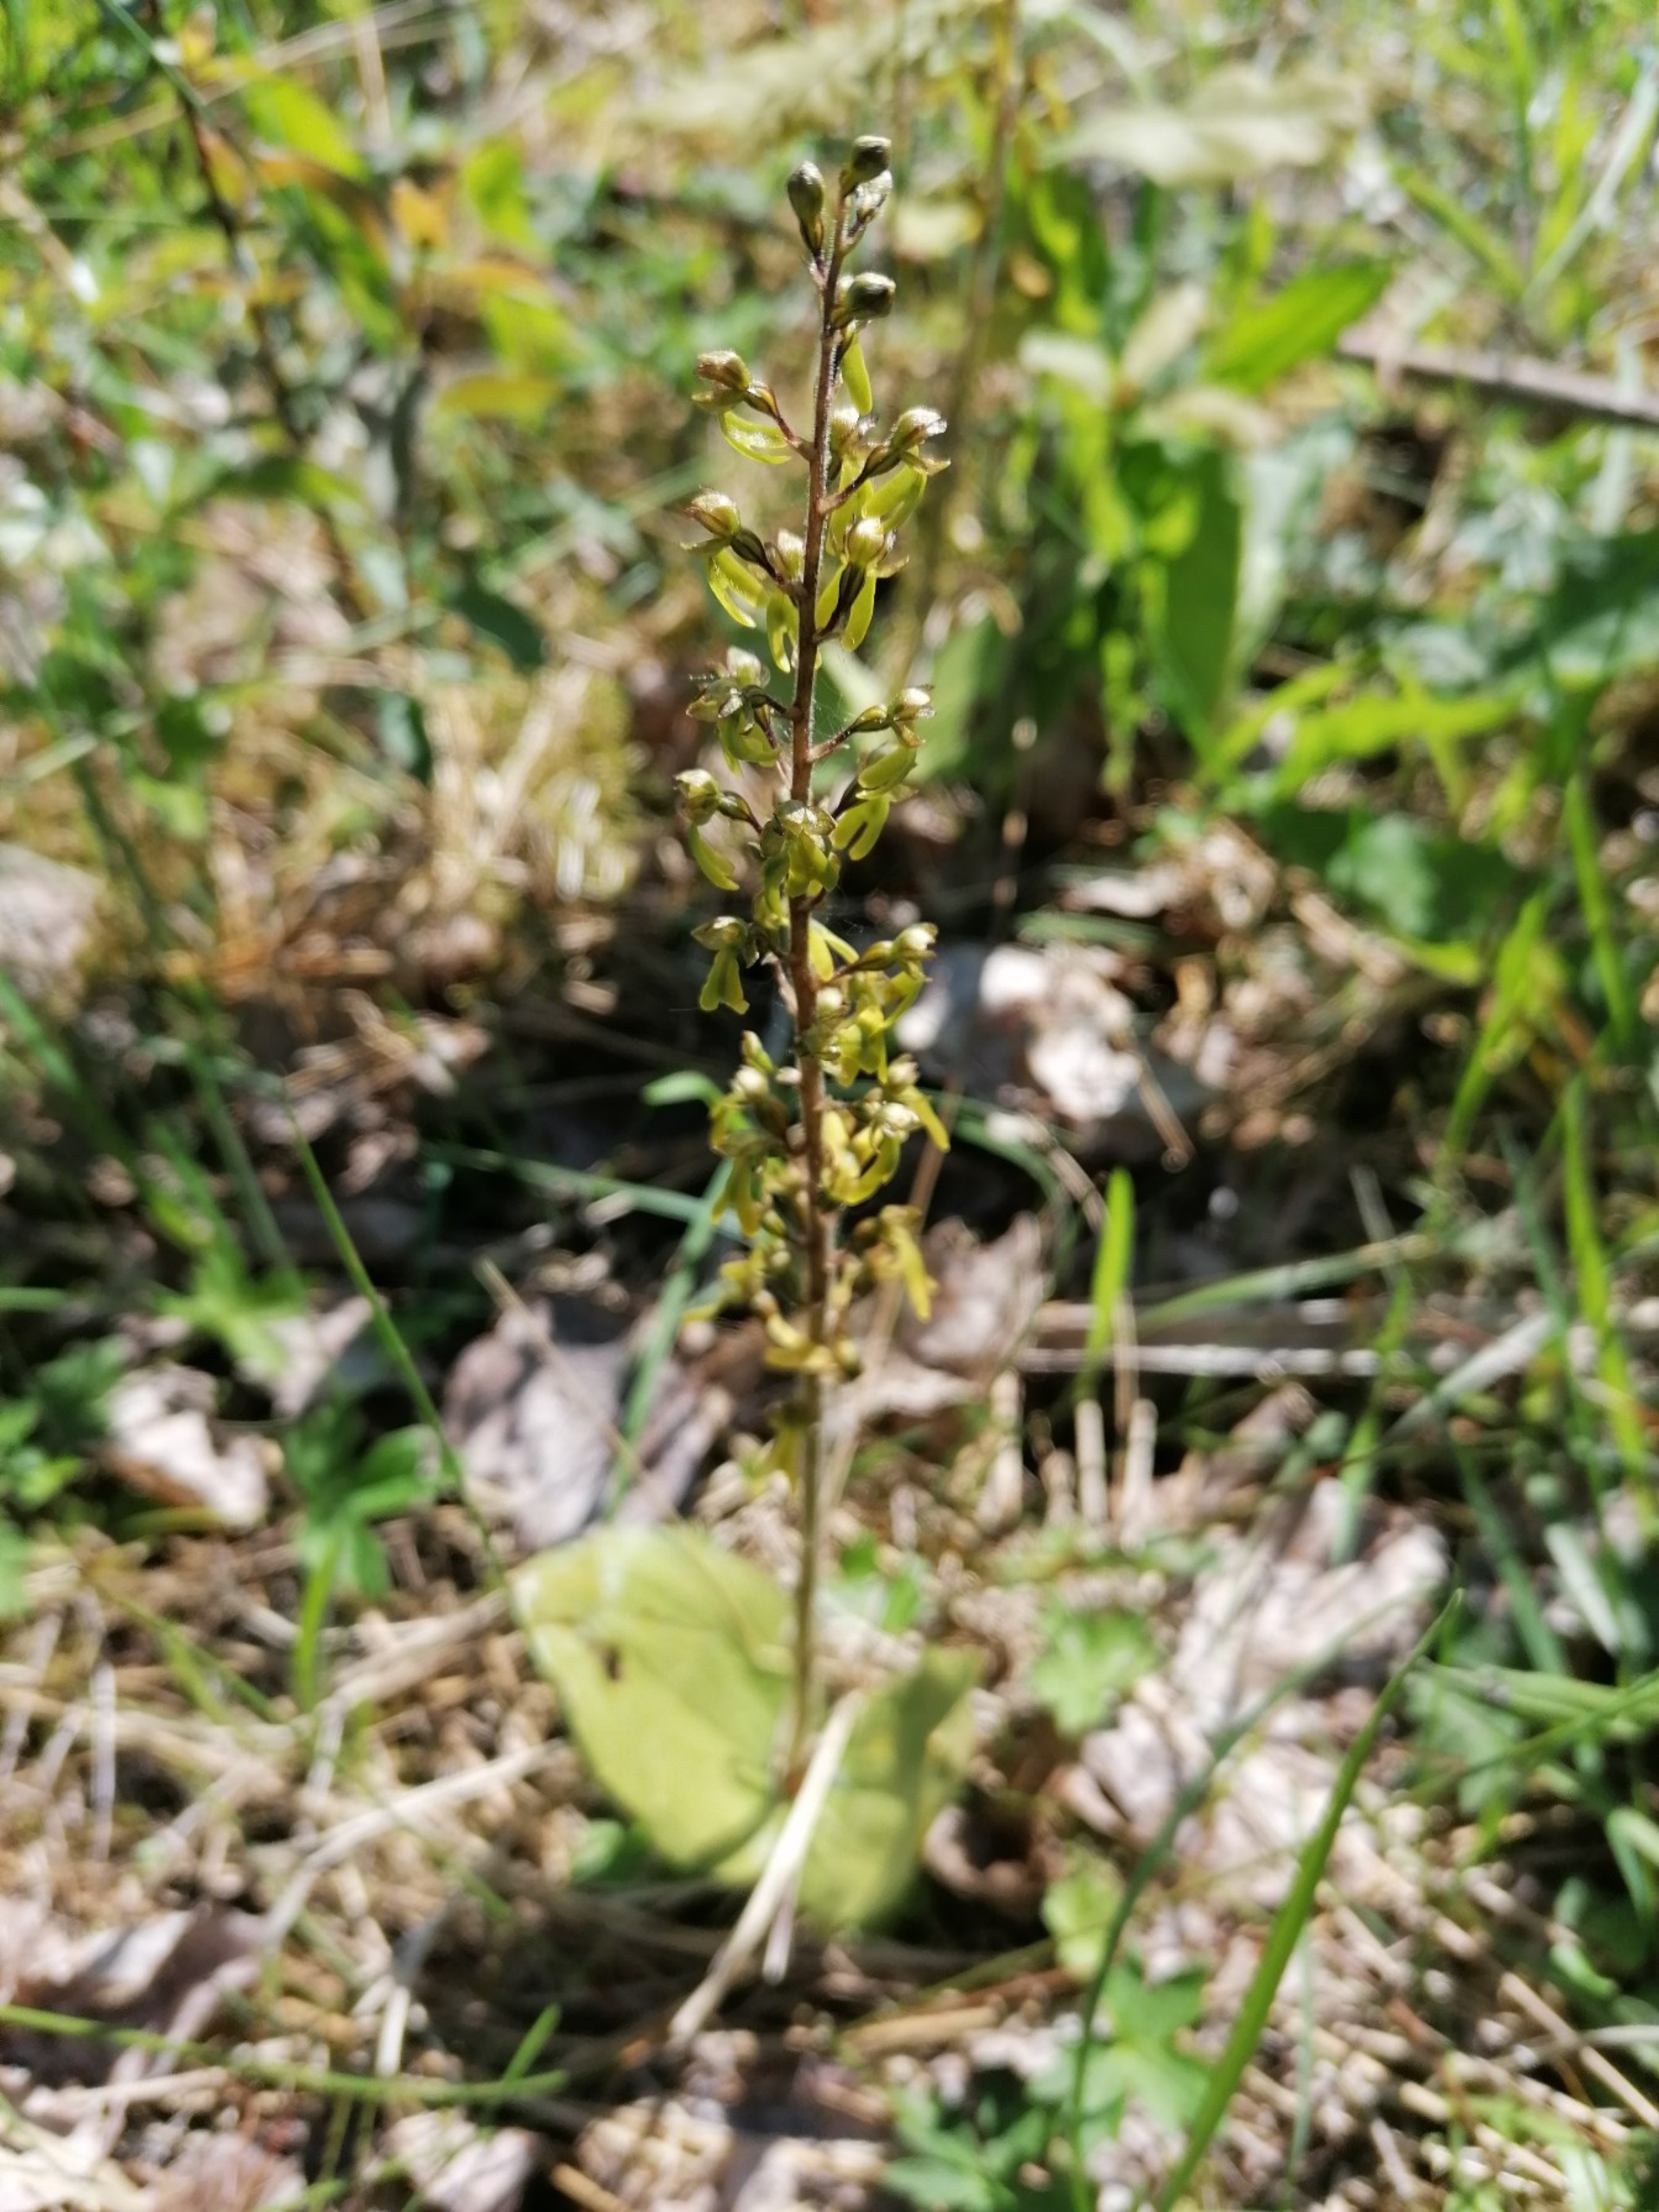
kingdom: Plantae
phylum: Tracheophyta
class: Liliopsida
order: Asparagales
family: Orchidaceae
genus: Neottia
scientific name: Neottia ovata
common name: Ægbladet fliglæbe
